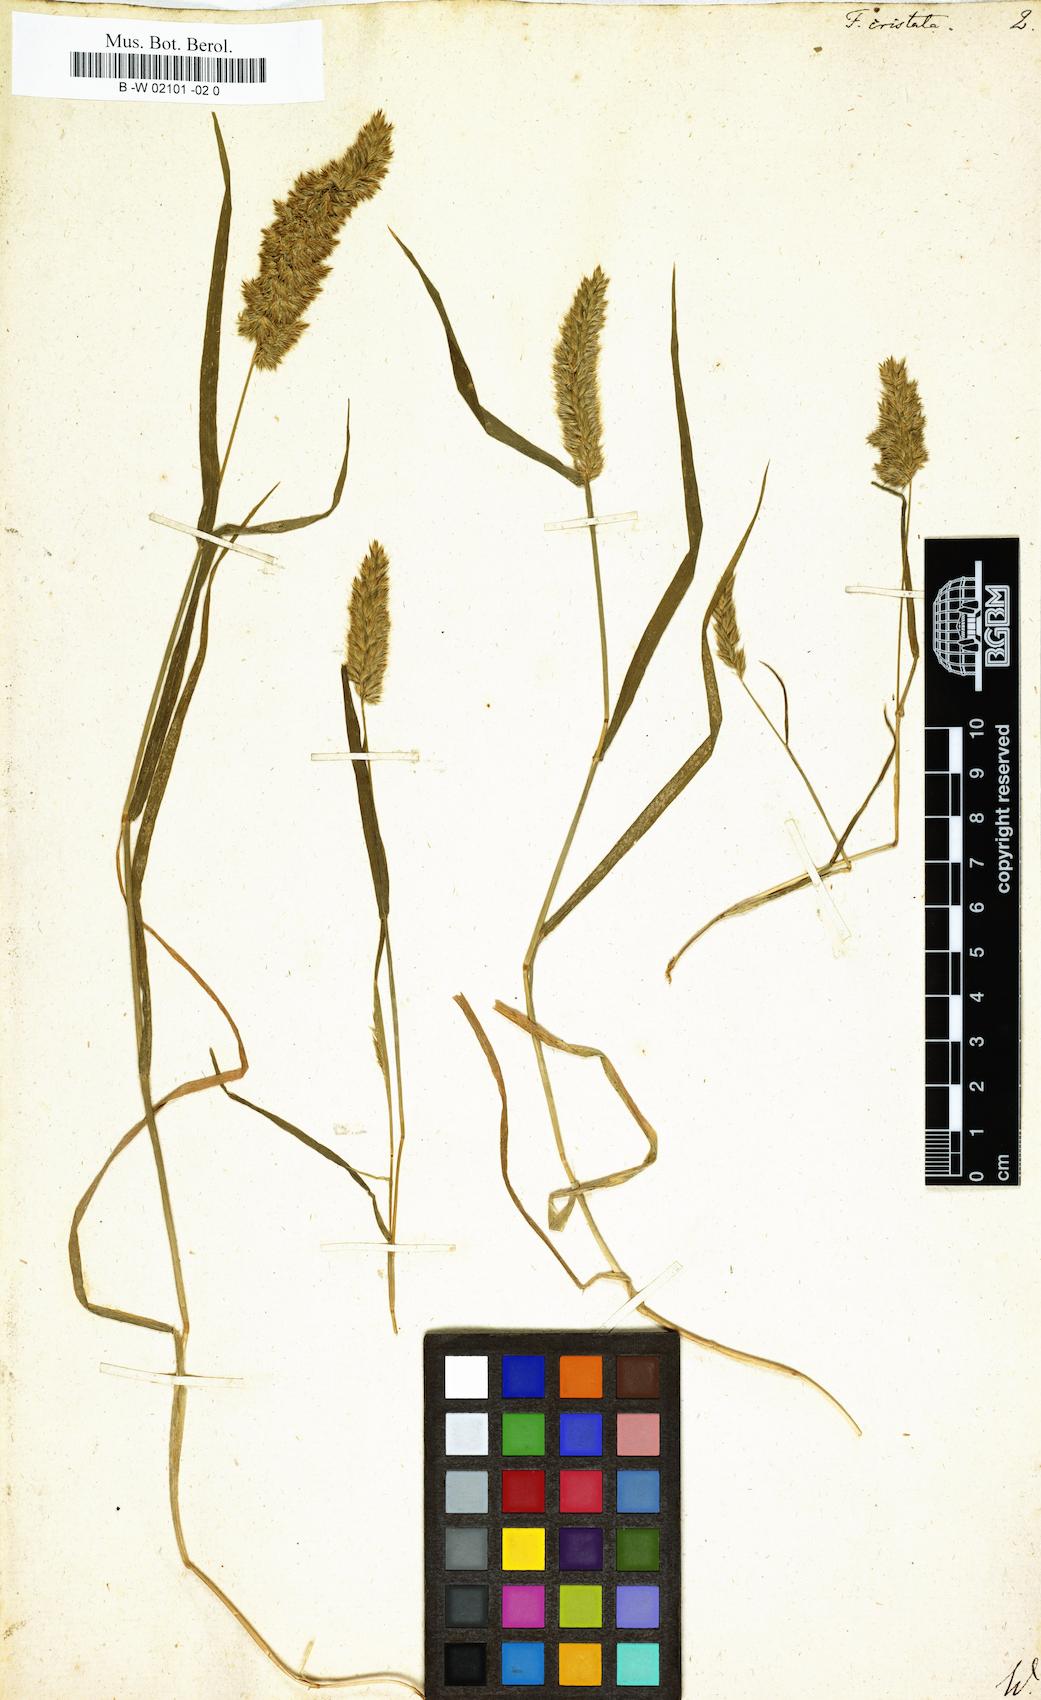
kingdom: Plantae
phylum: Tracheophyta
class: Liliopsida
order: Poales
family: Poaceae
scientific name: Poaceae
